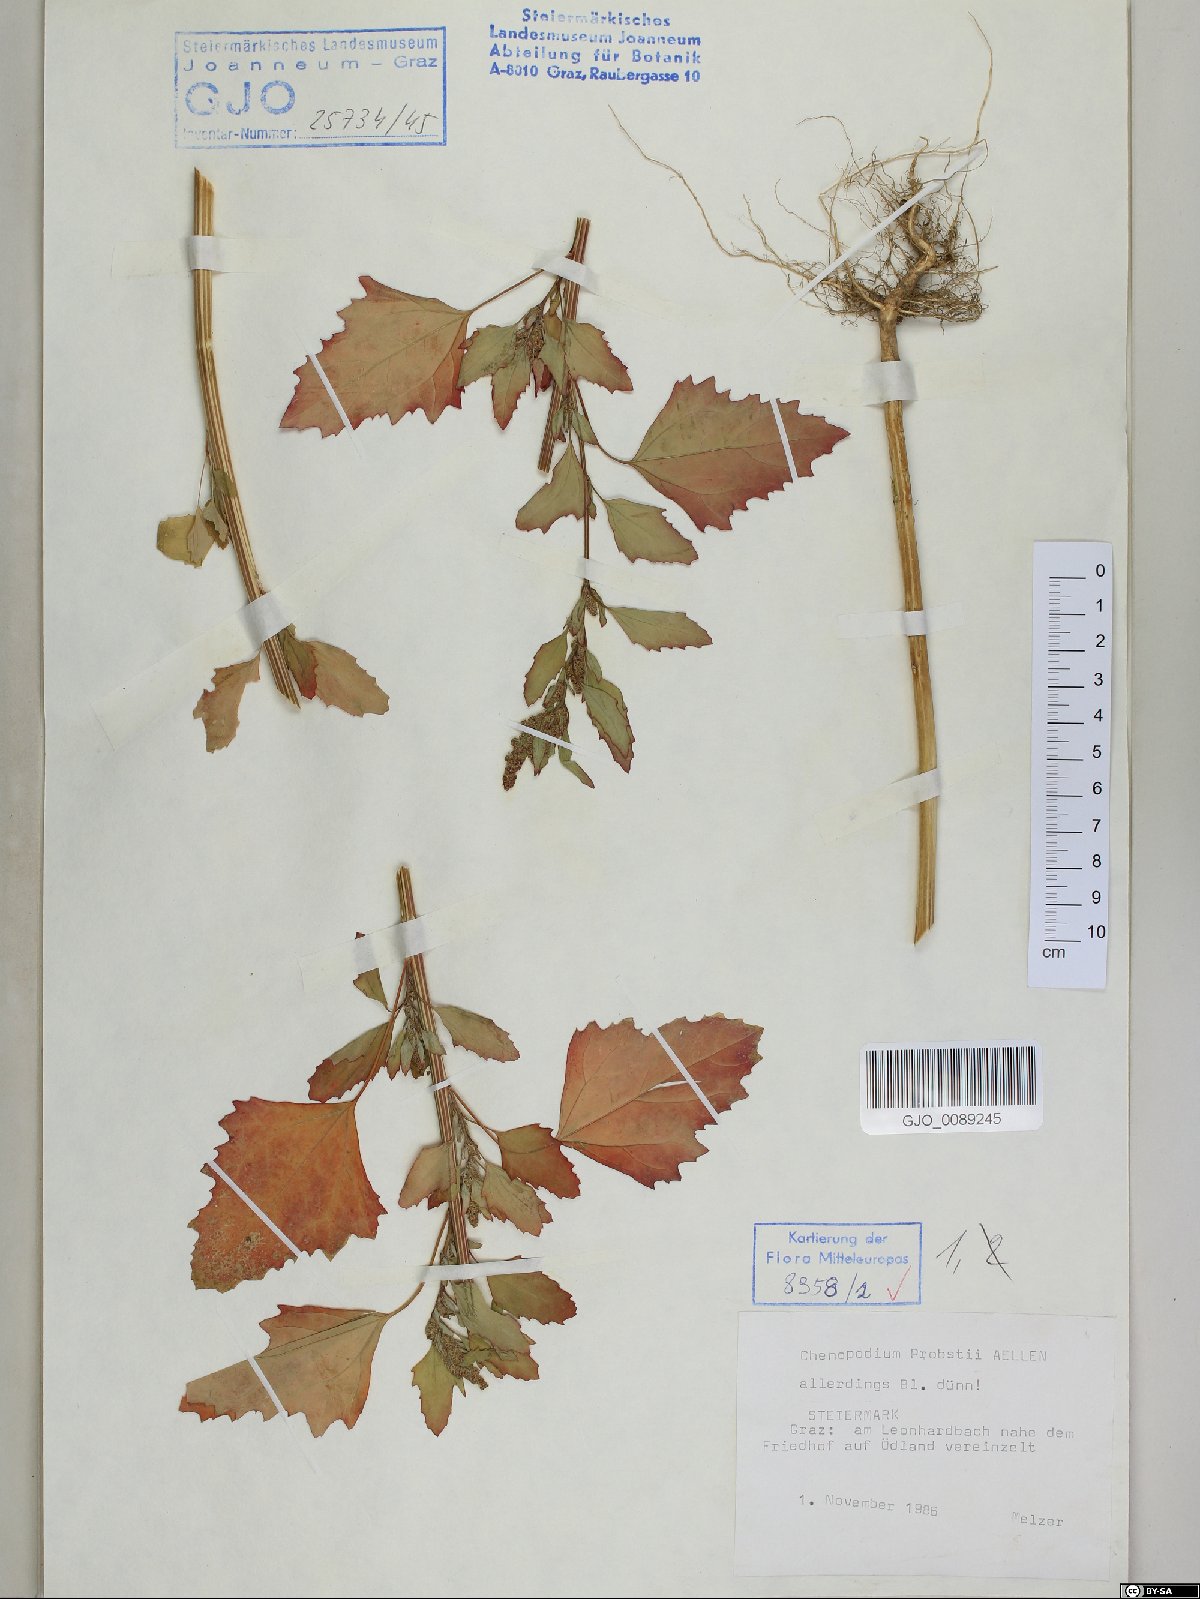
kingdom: Plantae
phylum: Tracheophyta
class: Magnoliopsida
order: Caryophyllales
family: Amaranthaceae
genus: Chenopodium
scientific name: Chenopodium probstii
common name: Probst's goosefoot
